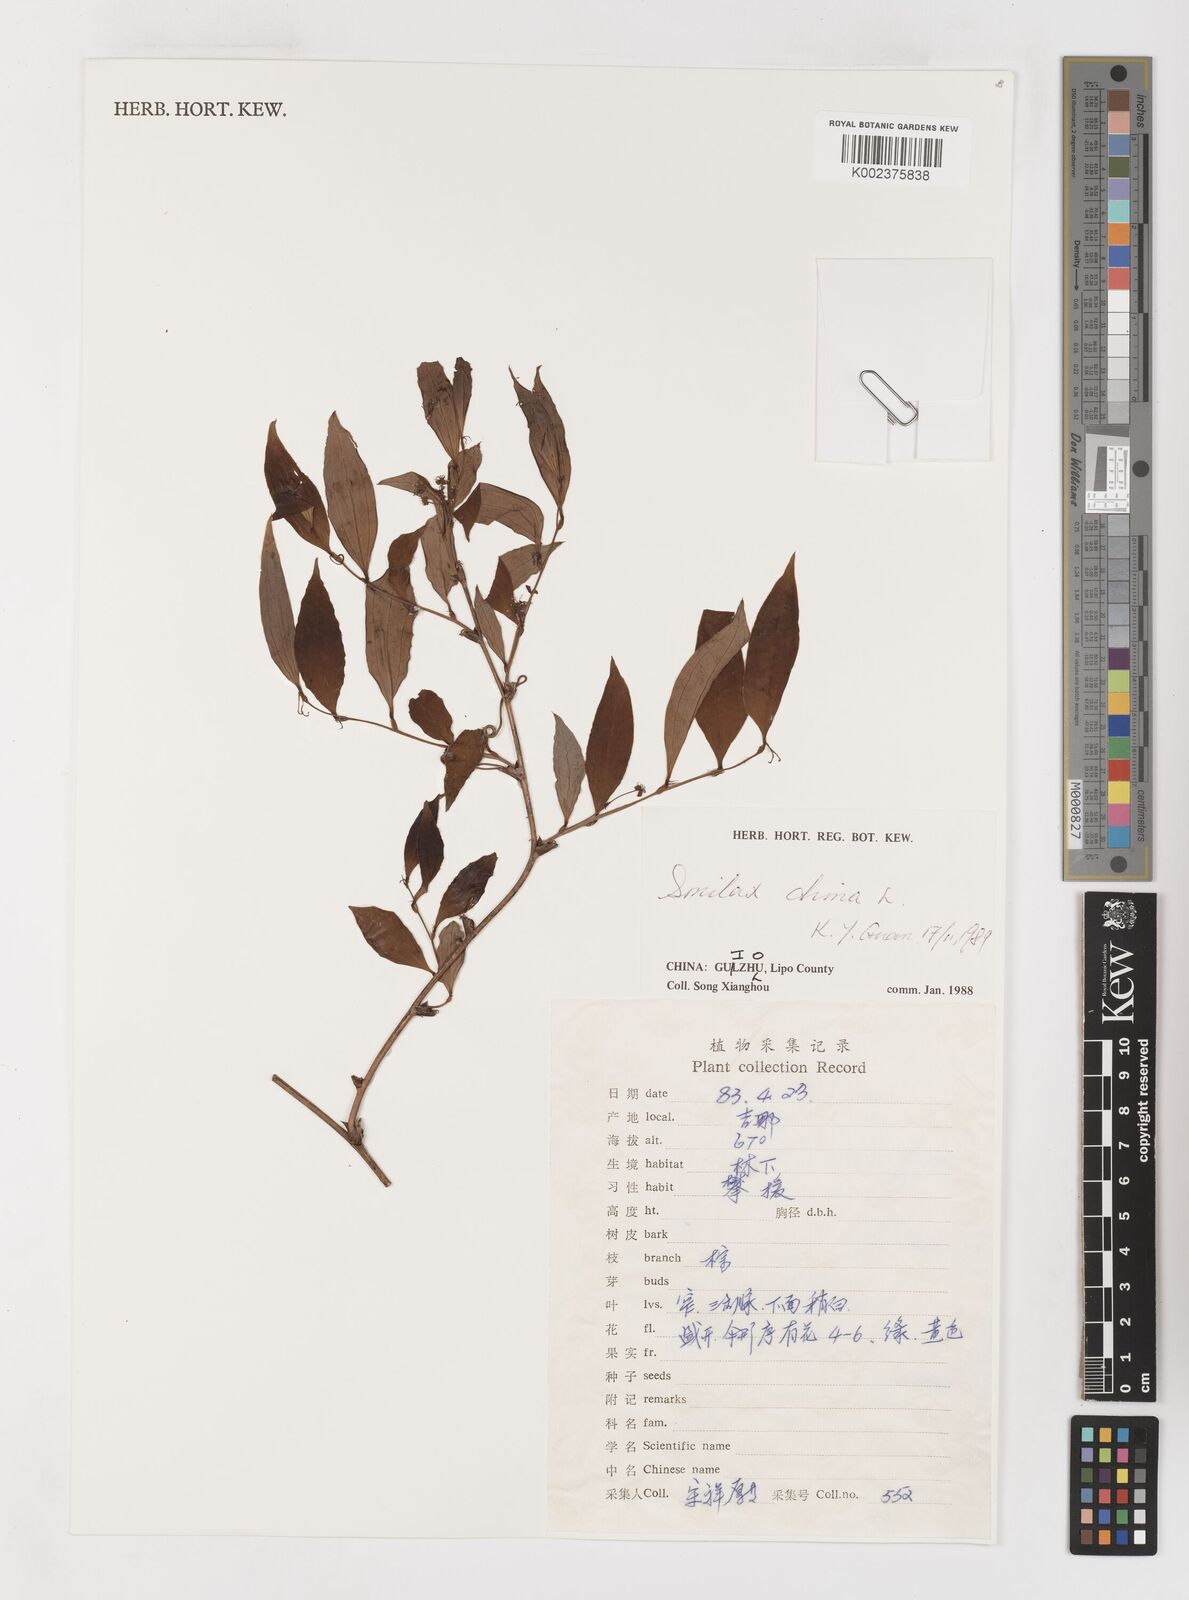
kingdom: Plantae
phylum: Tracheophyta
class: Liliopsida
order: Liliales
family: Smilacaceae
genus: Smilax
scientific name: Smilax china
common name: Chinaroot
